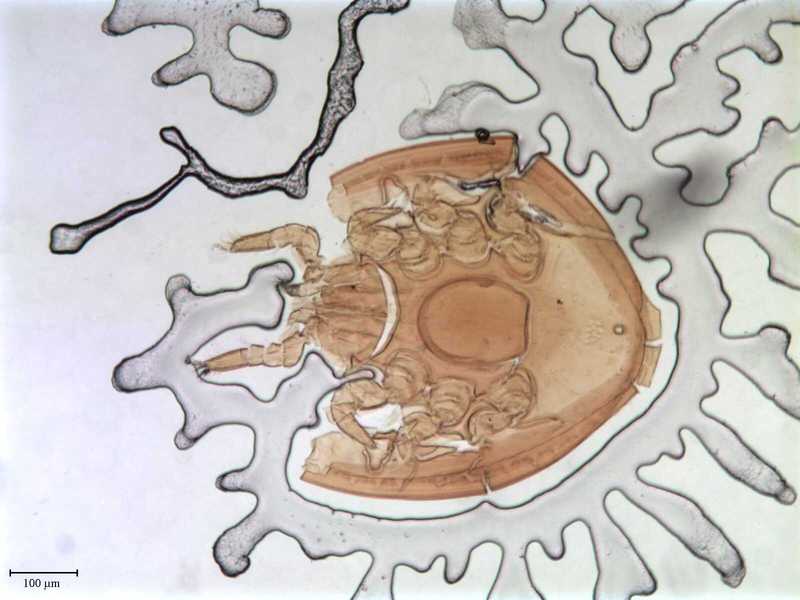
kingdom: Animalia
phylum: Arthropoda
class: Arachnida
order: Mesostigmata
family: Oplitidae
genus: Oplitis
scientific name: Oplitis philoctena
